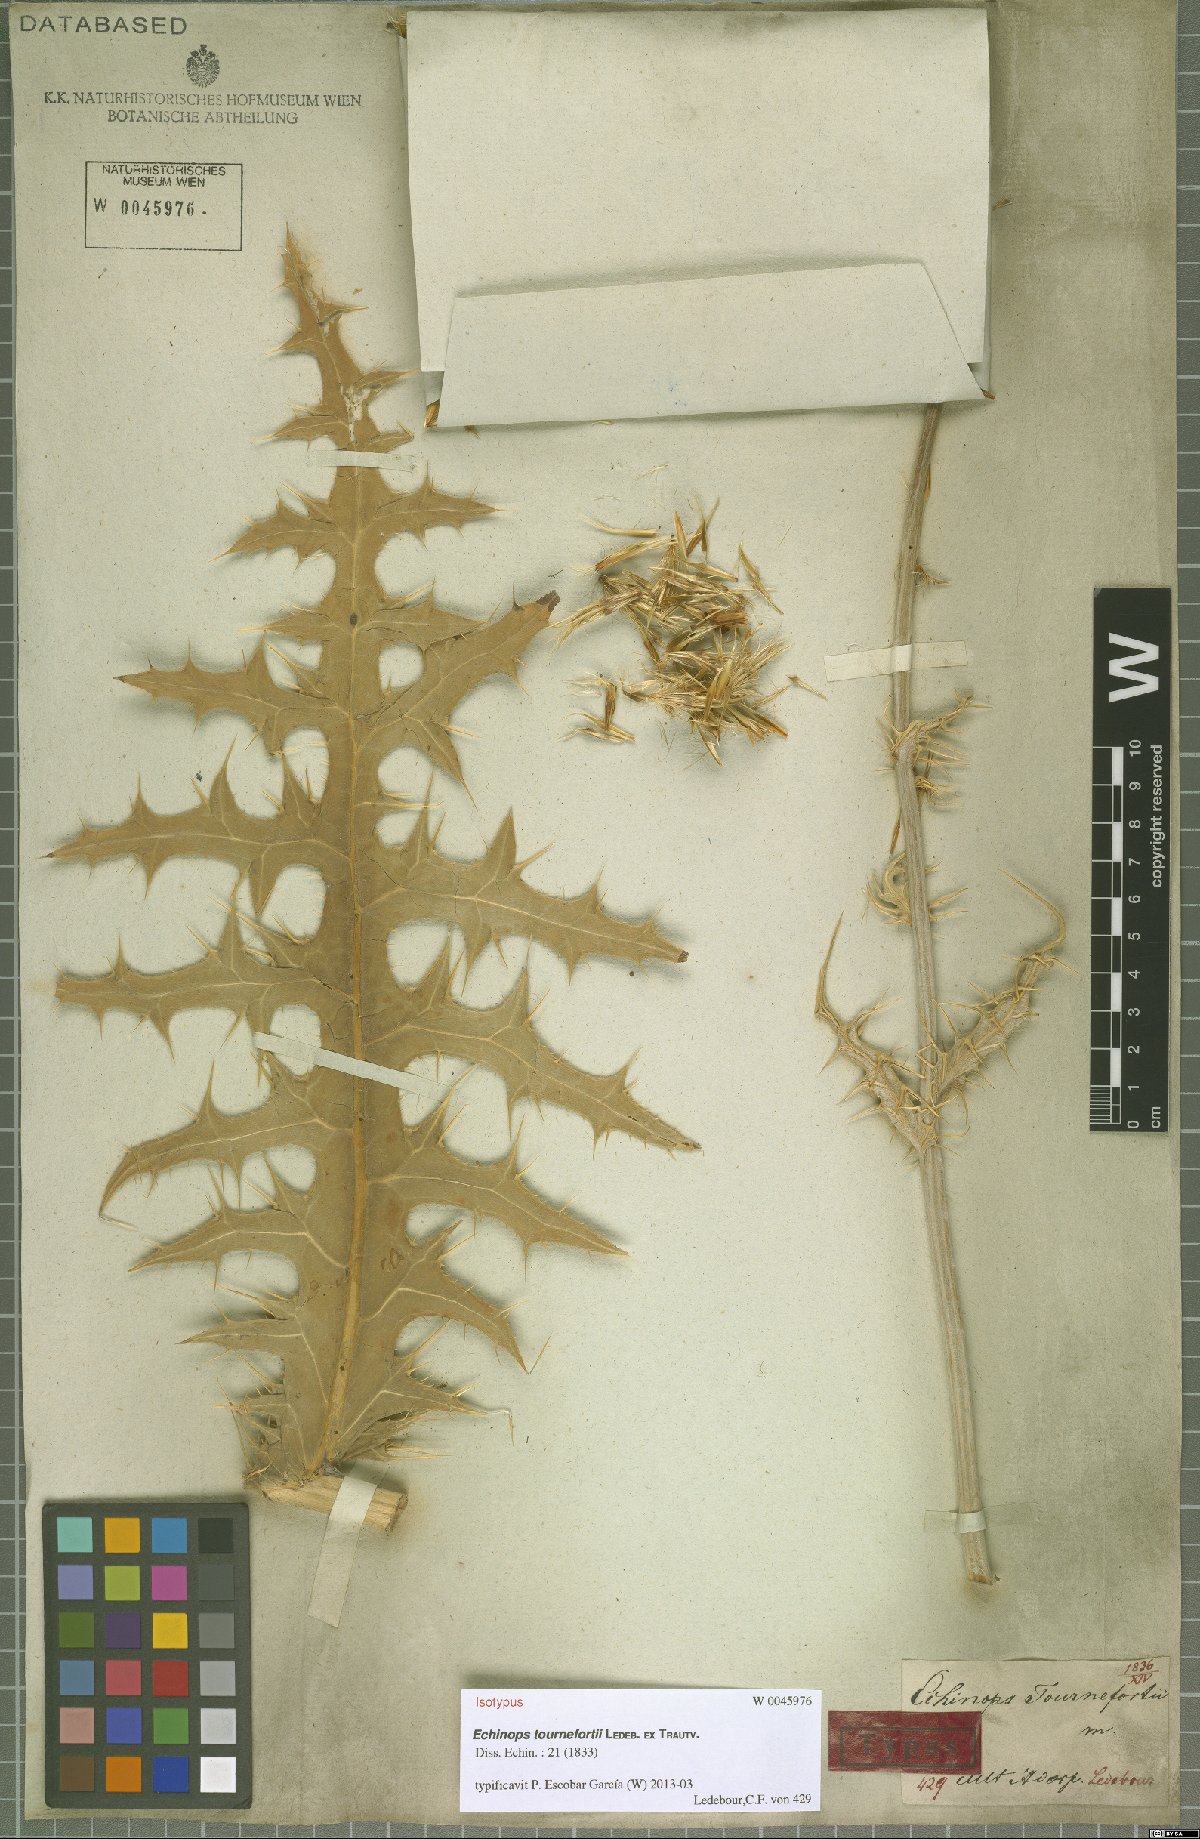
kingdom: Plantae
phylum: Tracheophyta
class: Magnoliopsida
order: Asterales
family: Asteraceae
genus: Echinops
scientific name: Echinops tournefortii
